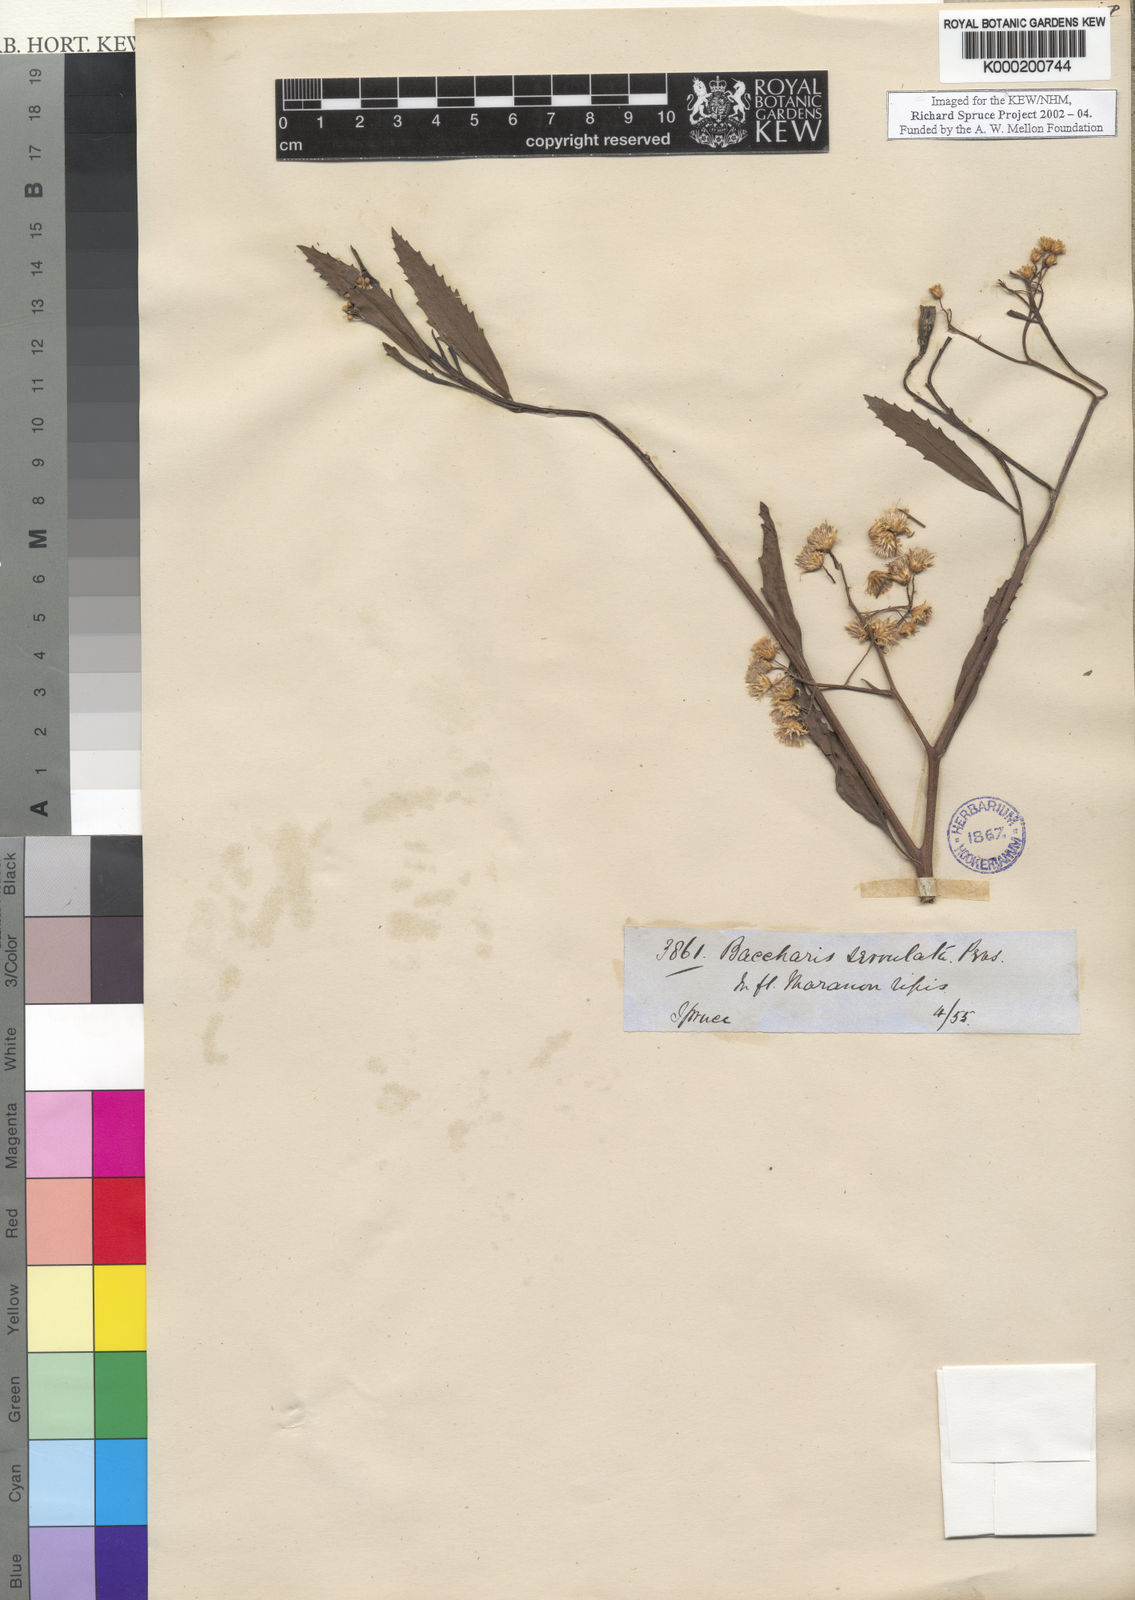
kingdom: Plantae
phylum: Tracheophyta
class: Magnoliopsida
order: Asterales
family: Asteraceae
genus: Baccharis
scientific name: Baccharis serrulata
